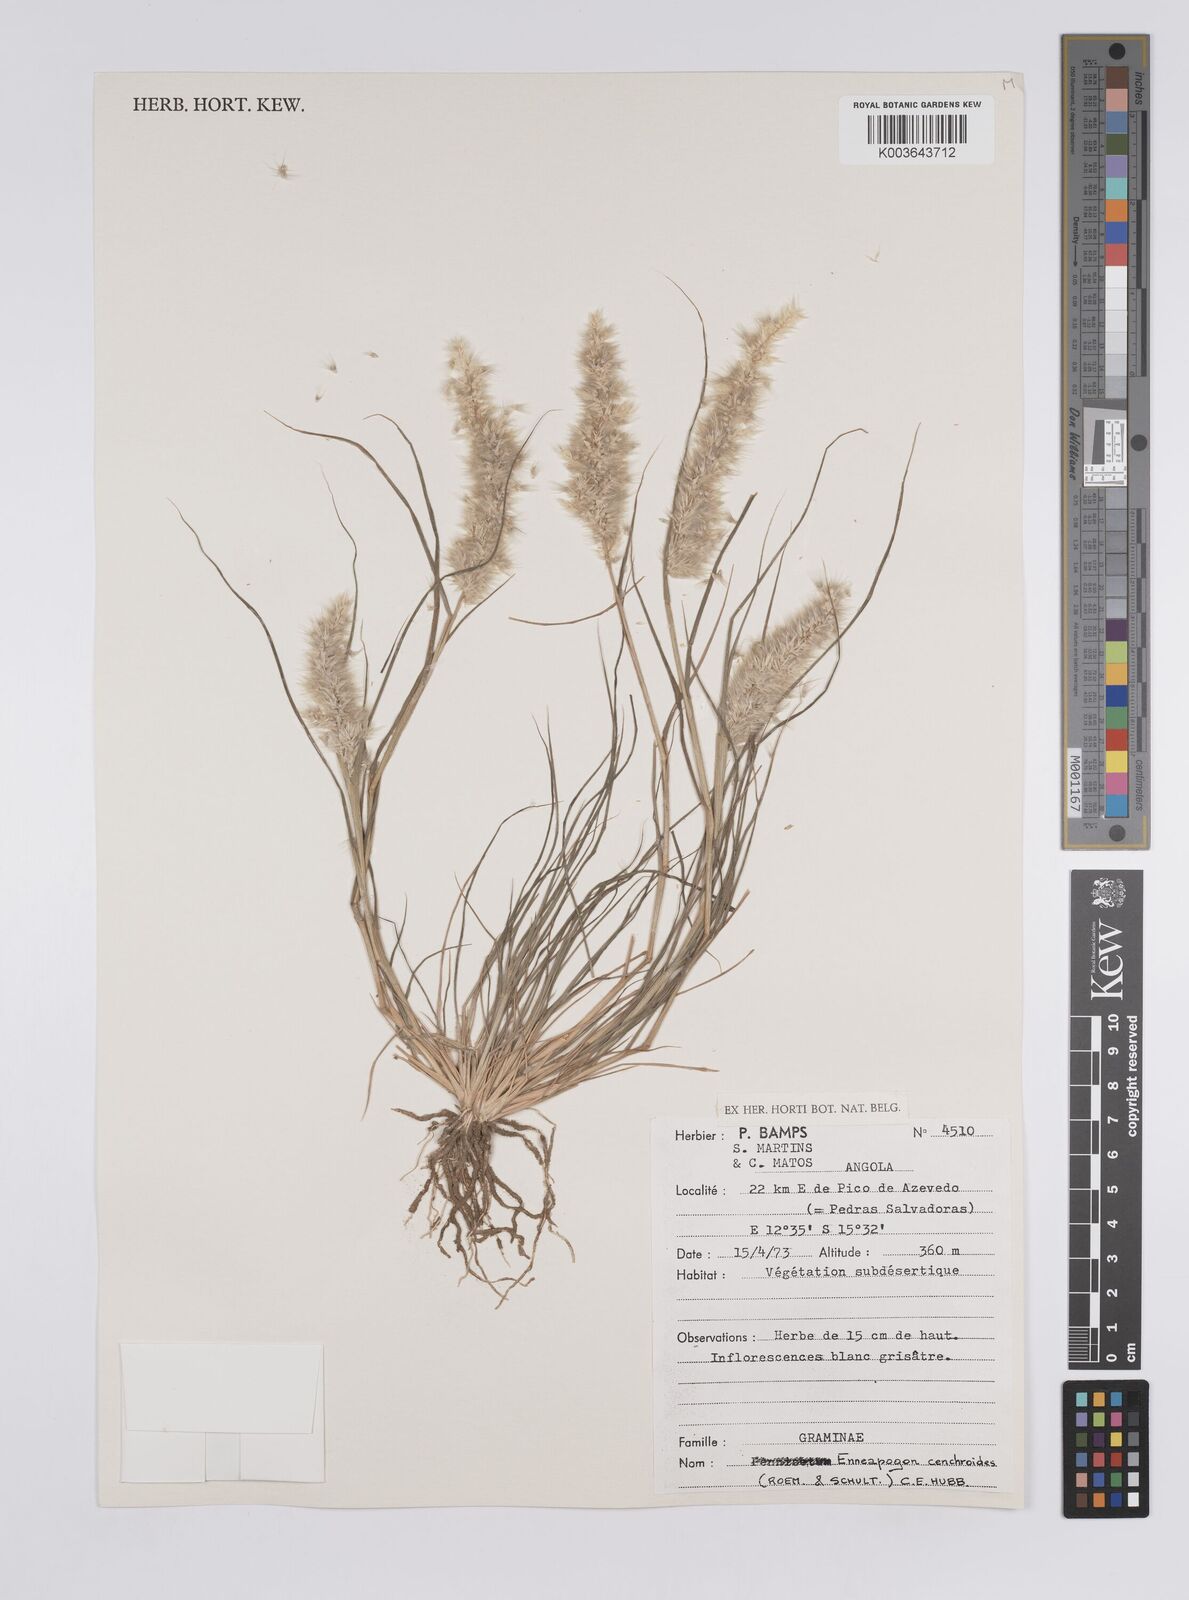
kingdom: Plantae
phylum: Tracheophyta
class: Liliopsida
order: Poales
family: Poaceae
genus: Enneapogon
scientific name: Enneapogon cenchroides
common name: Soft feather pappusgrass
